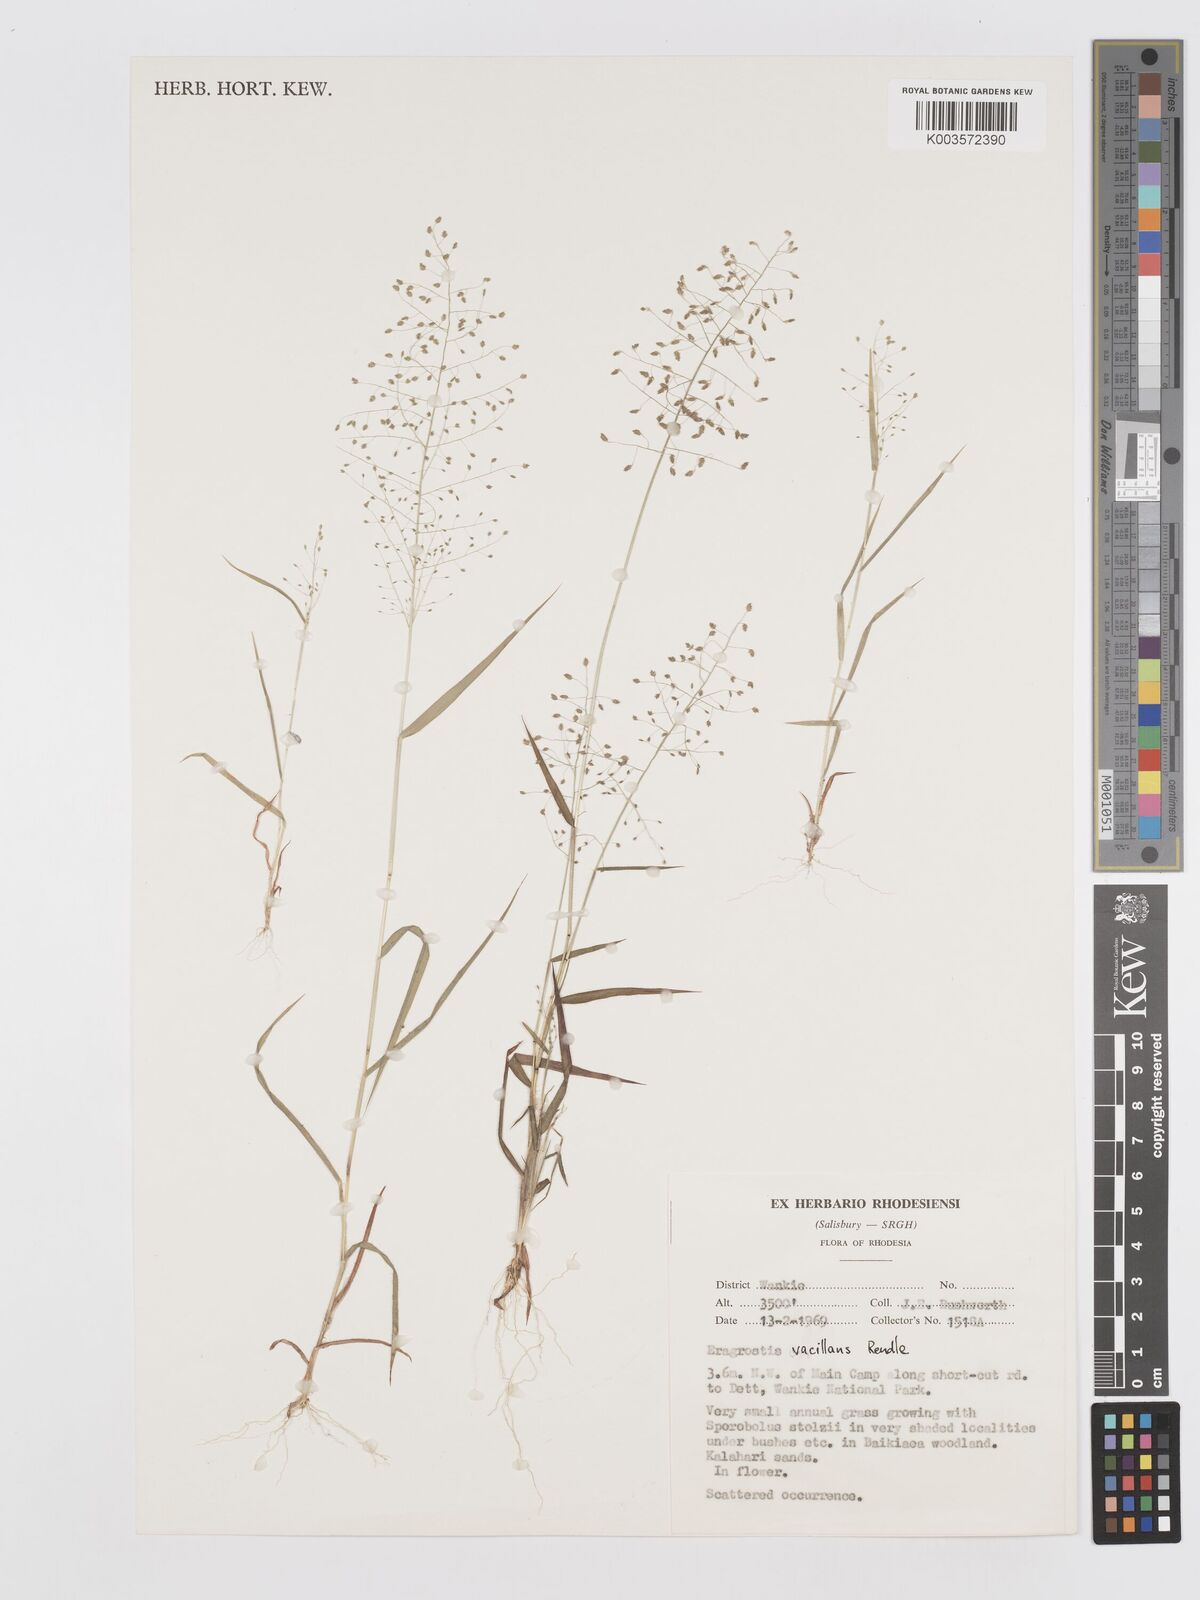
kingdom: Plantae
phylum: Tracheophyta
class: Liliopsida
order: Poales
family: Poaceae
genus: Eragrostis
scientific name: Eragrostis venustula
